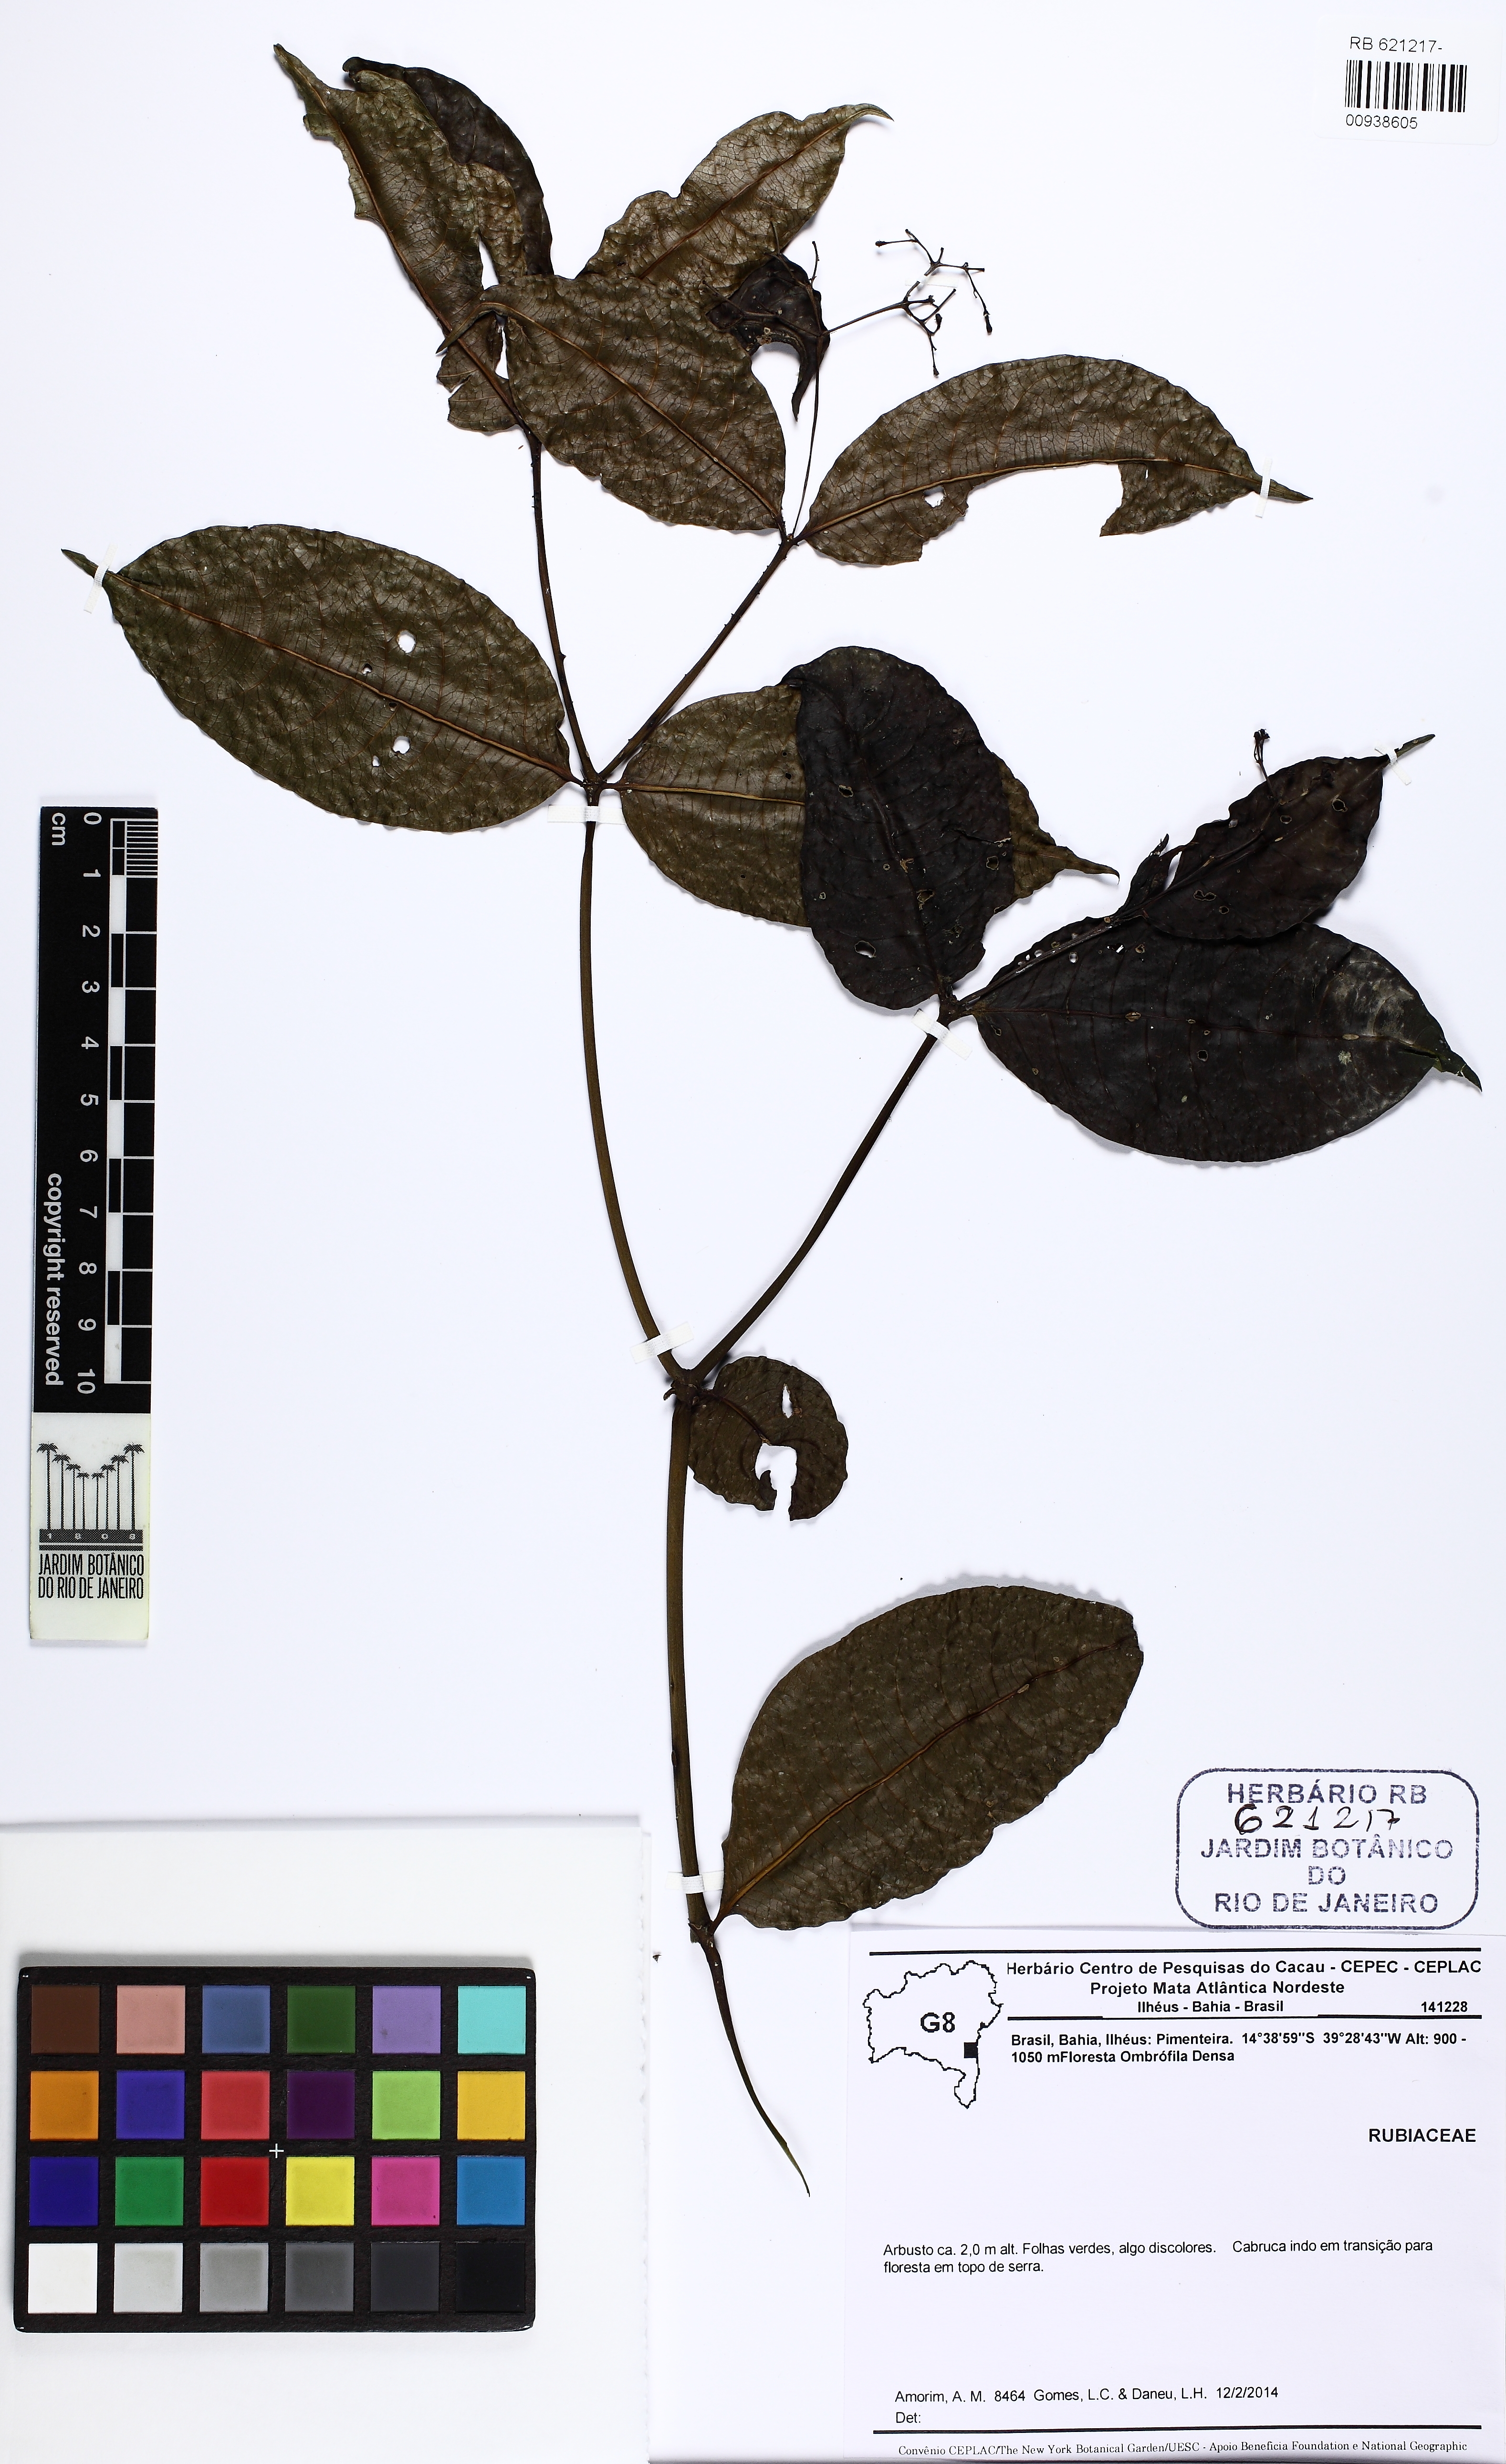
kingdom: Plantae
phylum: Tracheophyta
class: Magnoliopsida
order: Gentianales
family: Rubiaceae
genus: Palicourea
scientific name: Palicourea
